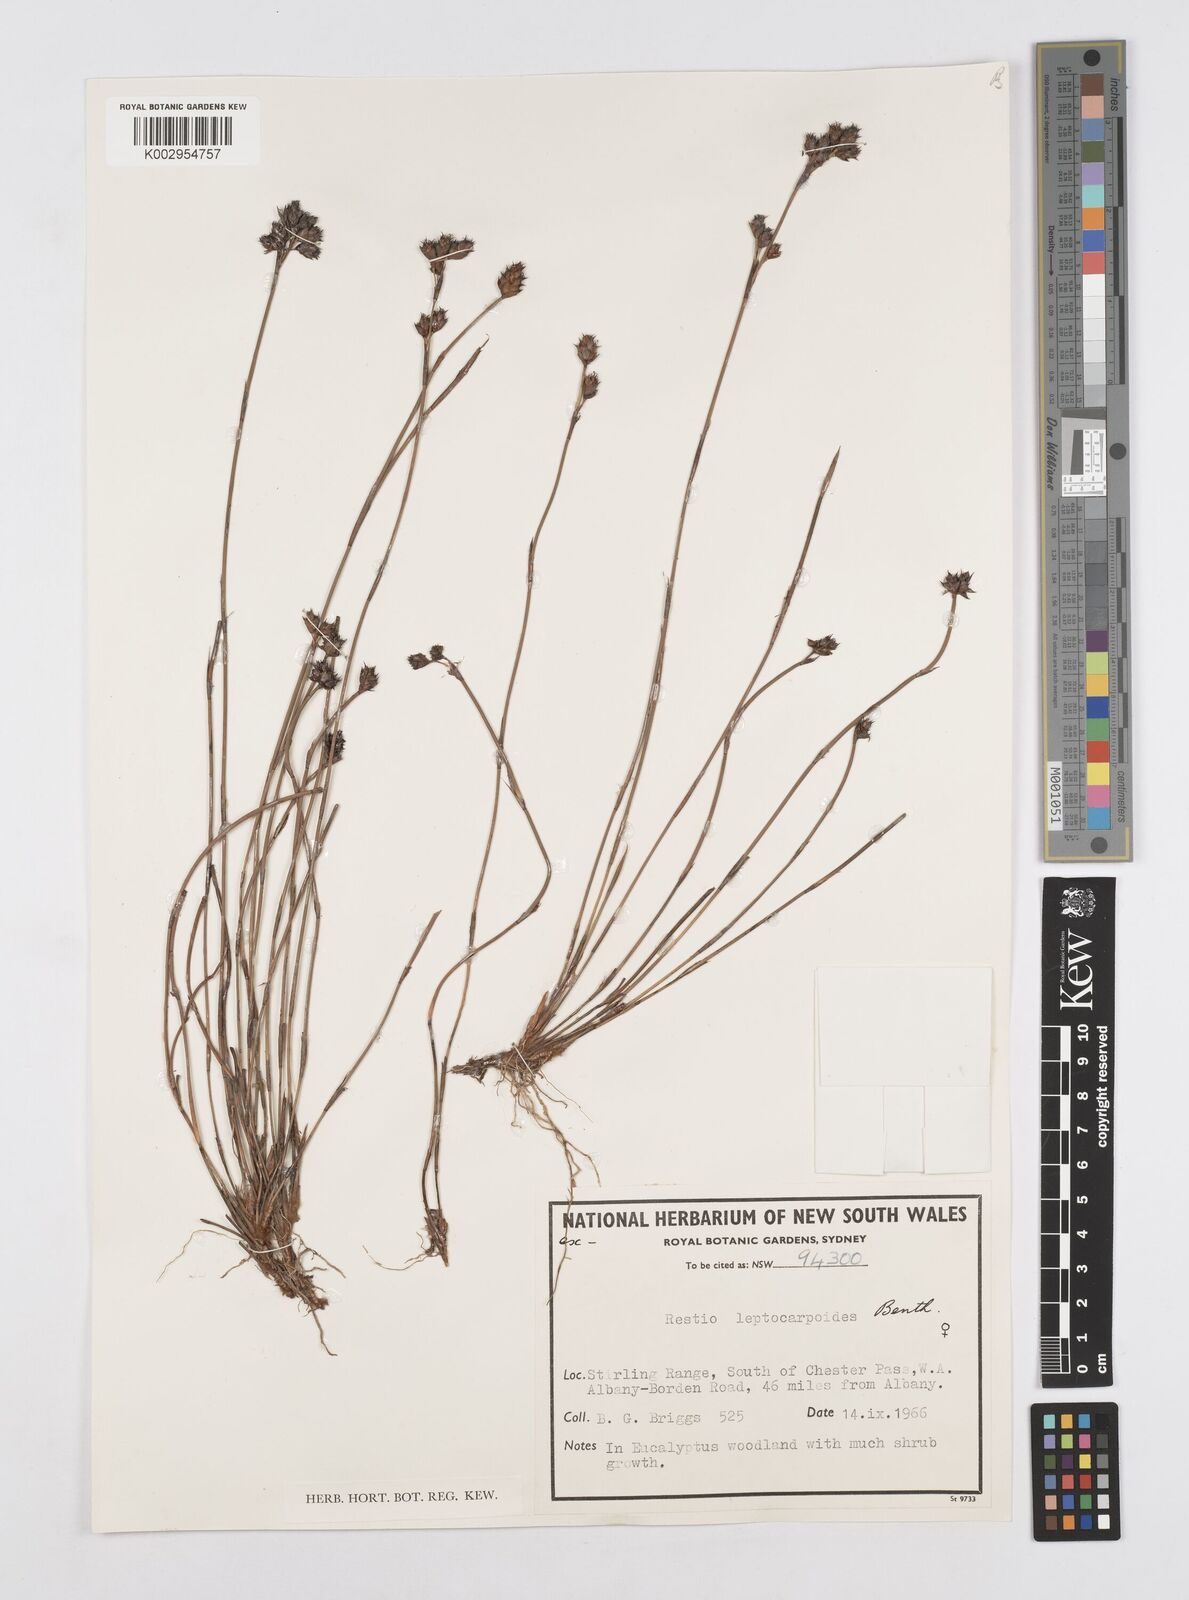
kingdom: Plantae
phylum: Tracheophyta
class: Liliopsida
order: Poales
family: Restionaceae
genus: Cytogonidium
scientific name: Cytogonidium leptocarpoides
